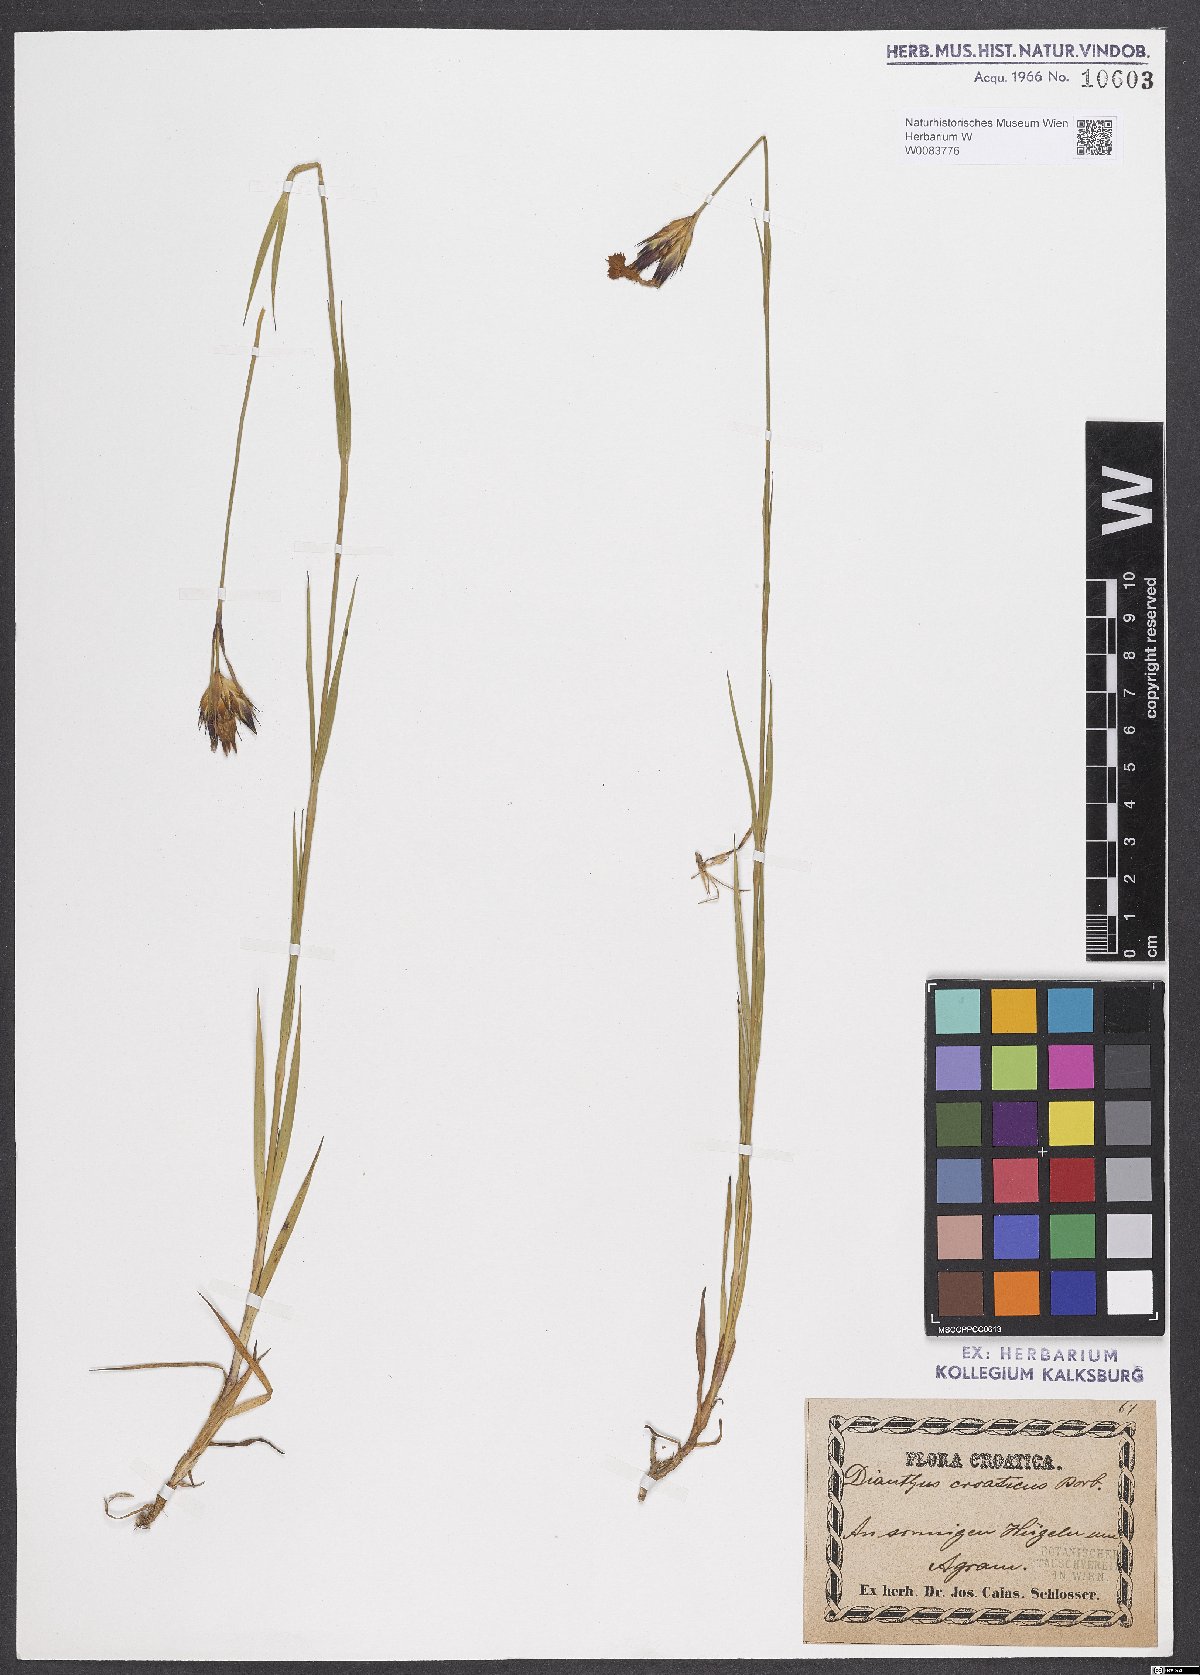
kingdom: Plantae
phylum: Tracheophyta
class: Magnoliopsida
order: Caryophyllales
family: Caryophyllaceae
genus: Dianthus
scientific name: Dianthus giganteus
